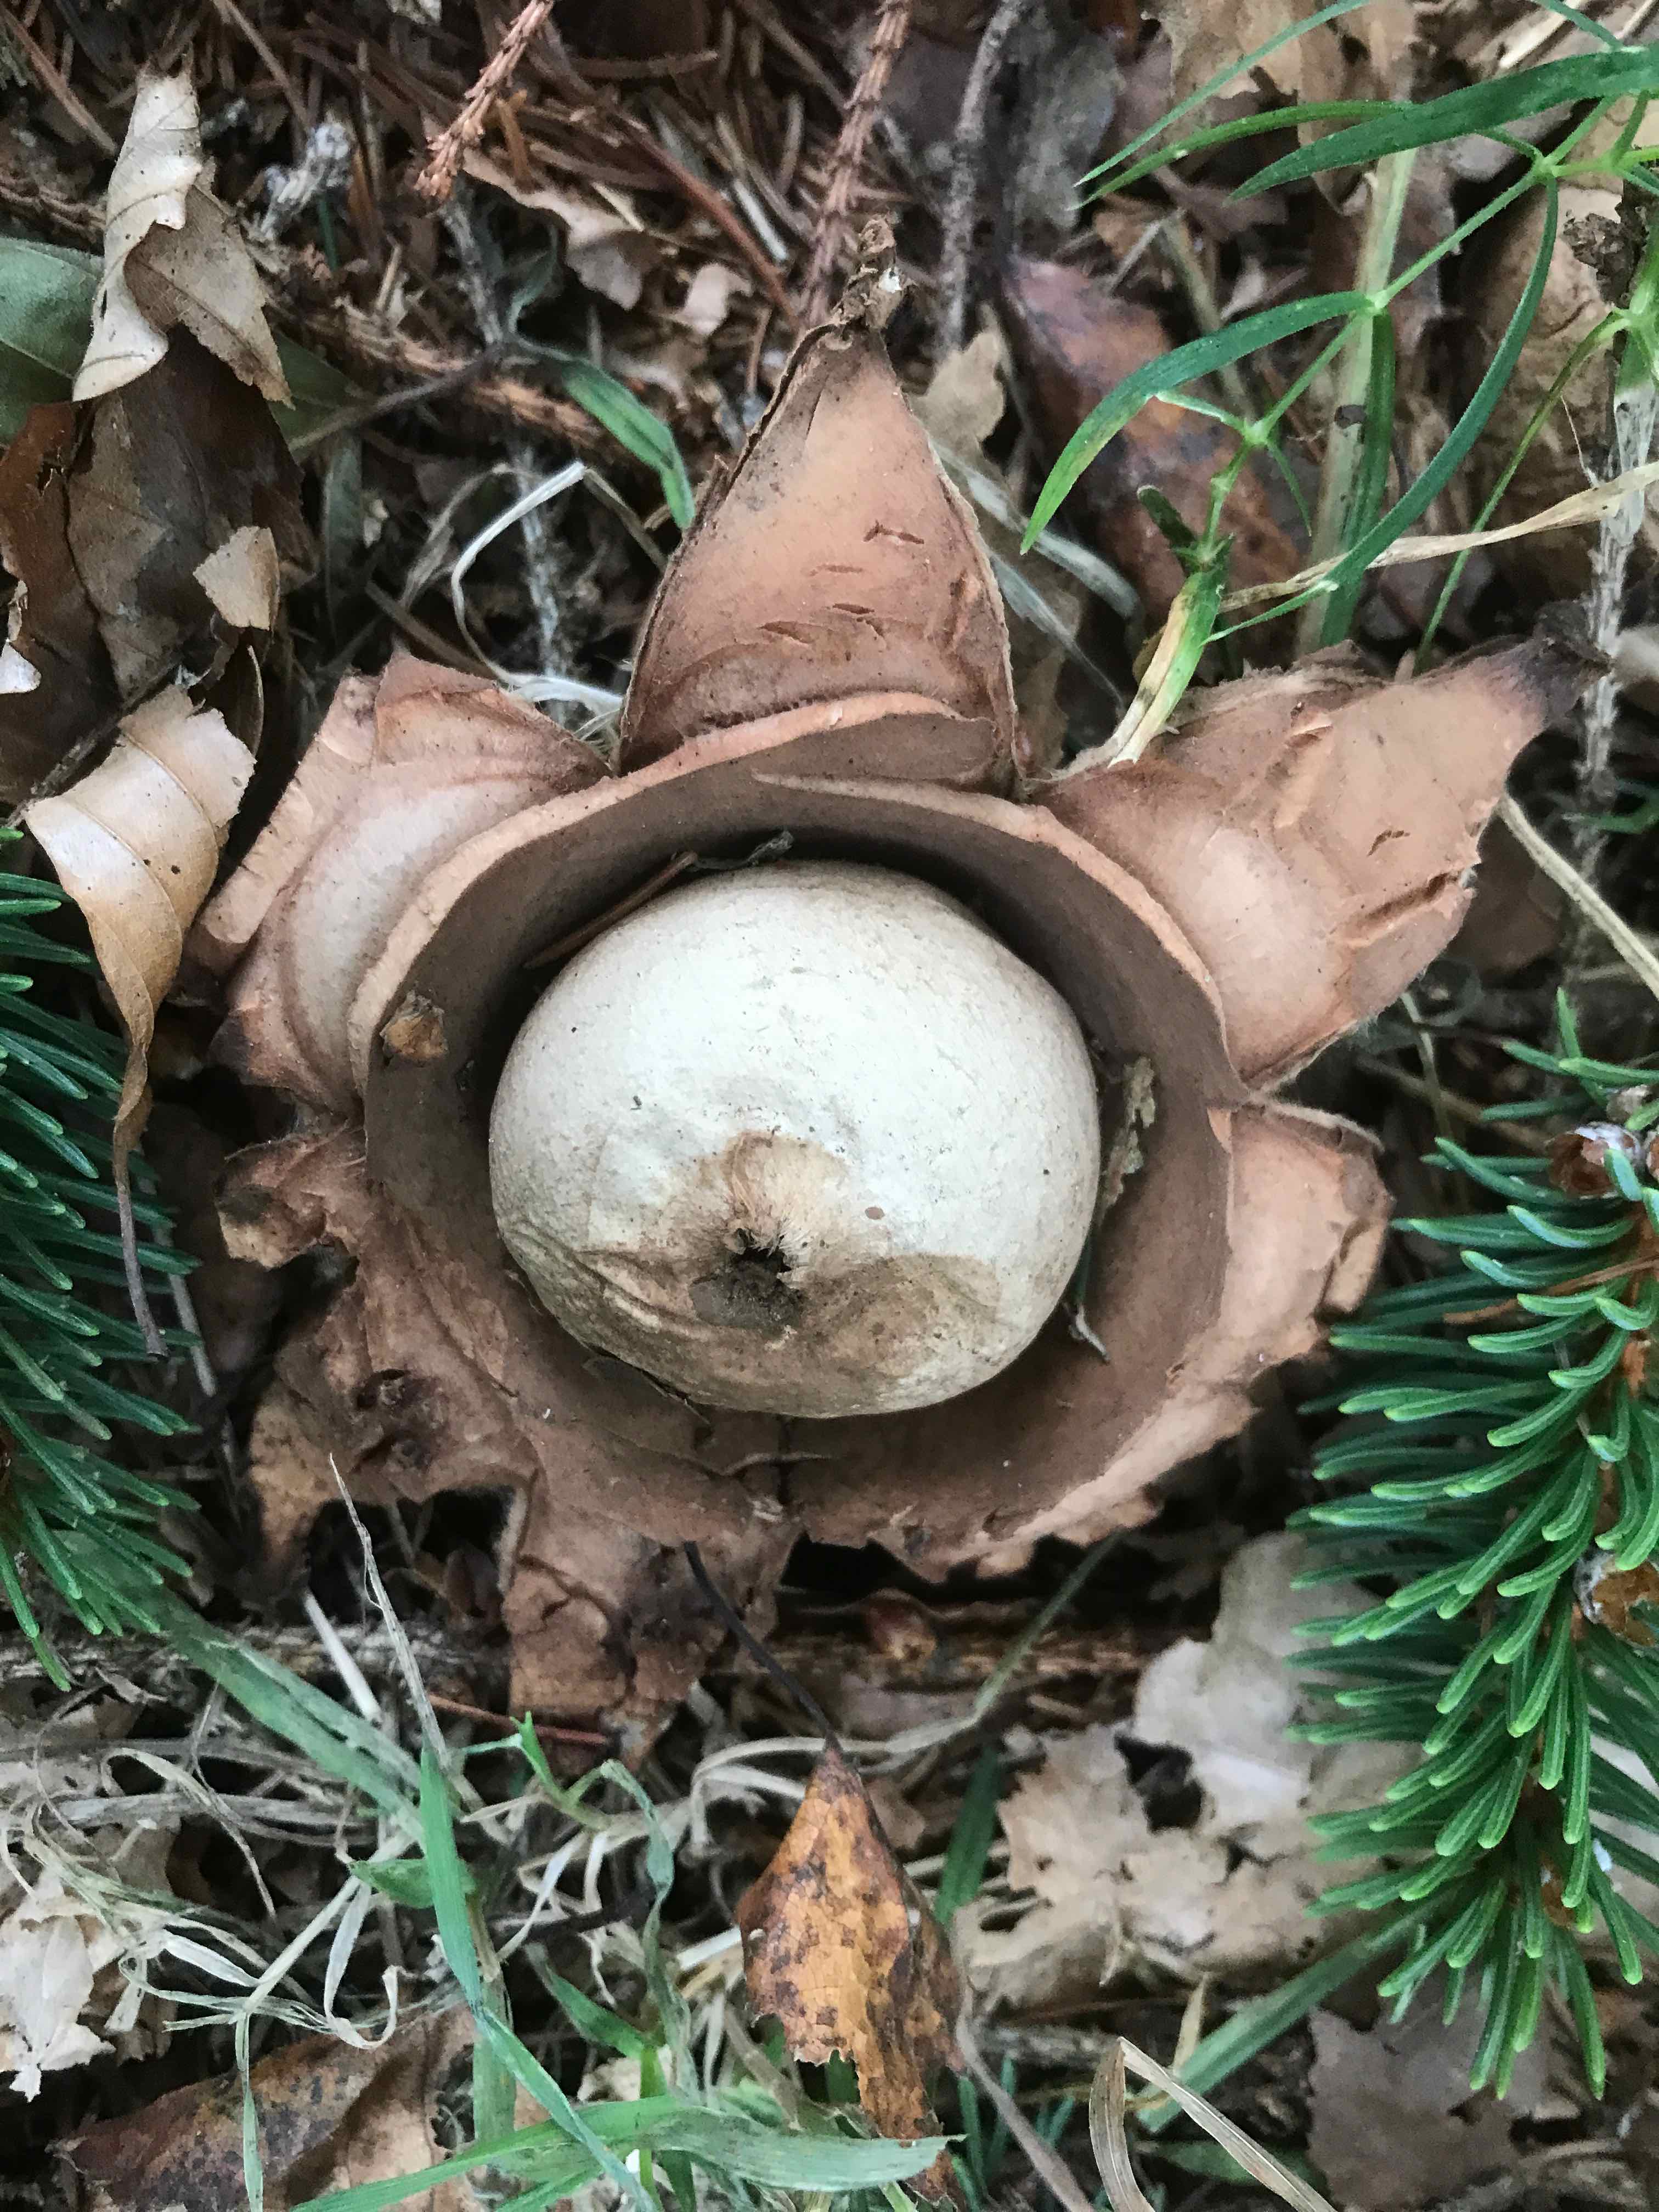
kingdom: Fungi
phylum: Basidiomycota
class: Agaricomycetes
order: Geastrales
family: Geastraceae
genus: Geastrum
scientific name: Geastrum michelianum
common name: kødet stjernebold
